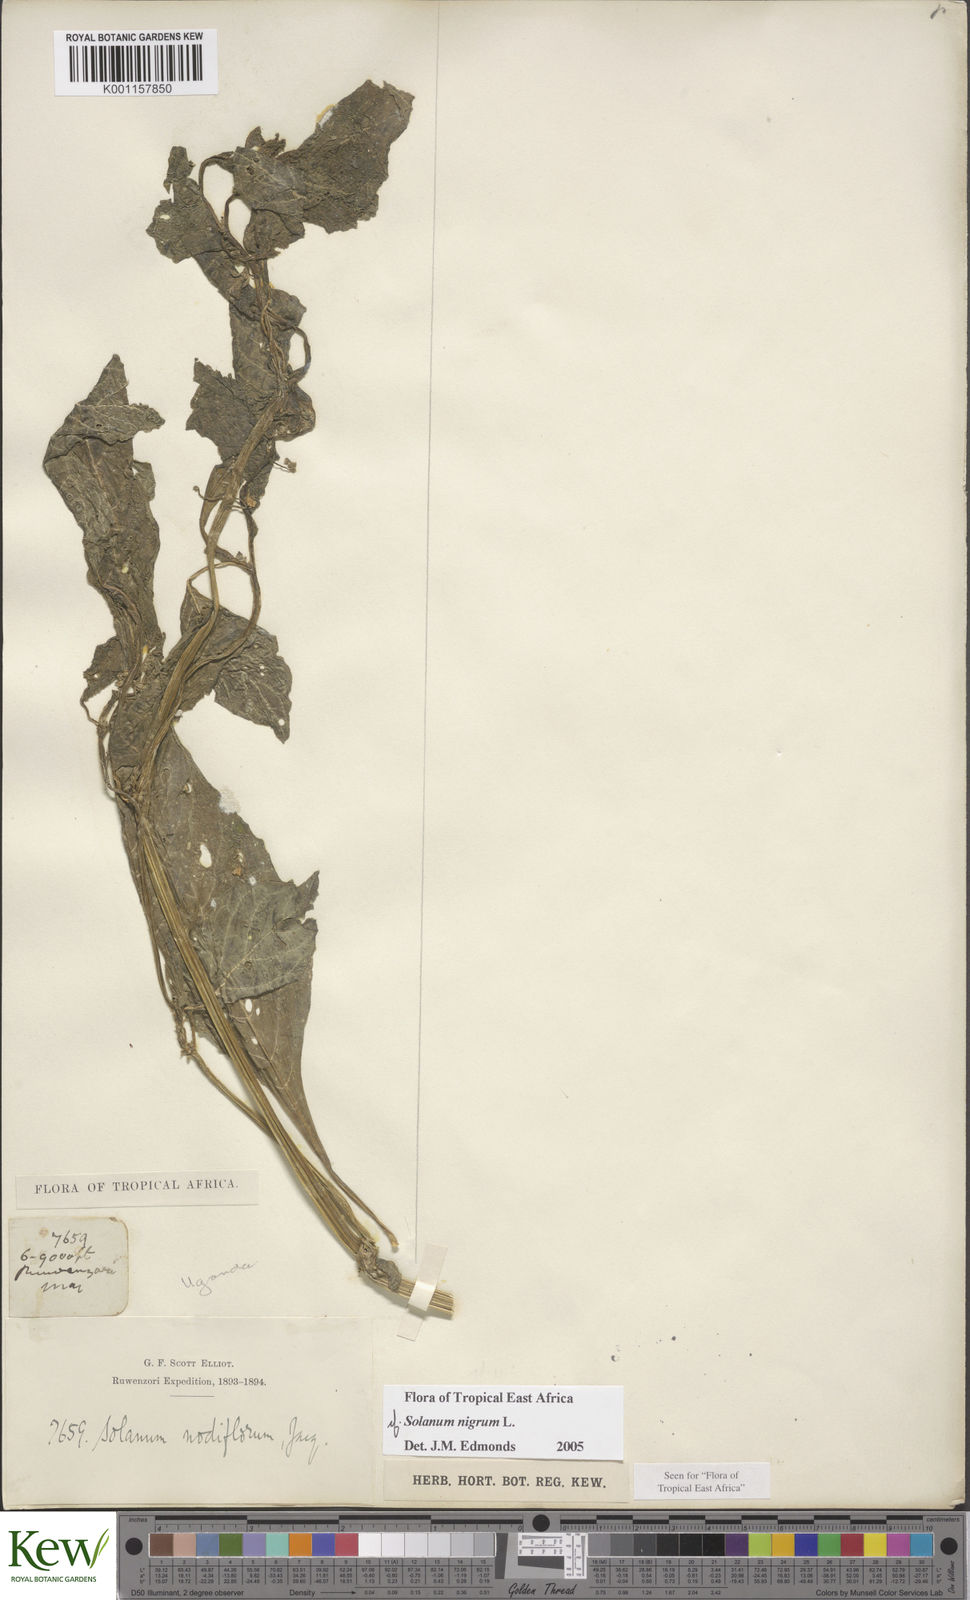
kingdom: Plantae
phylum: Tracheophyta
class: Magnoliopsida
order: Solanales
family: Solanaceae
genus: Solanum
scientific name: Solanum nigrum
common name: Black nightshade
